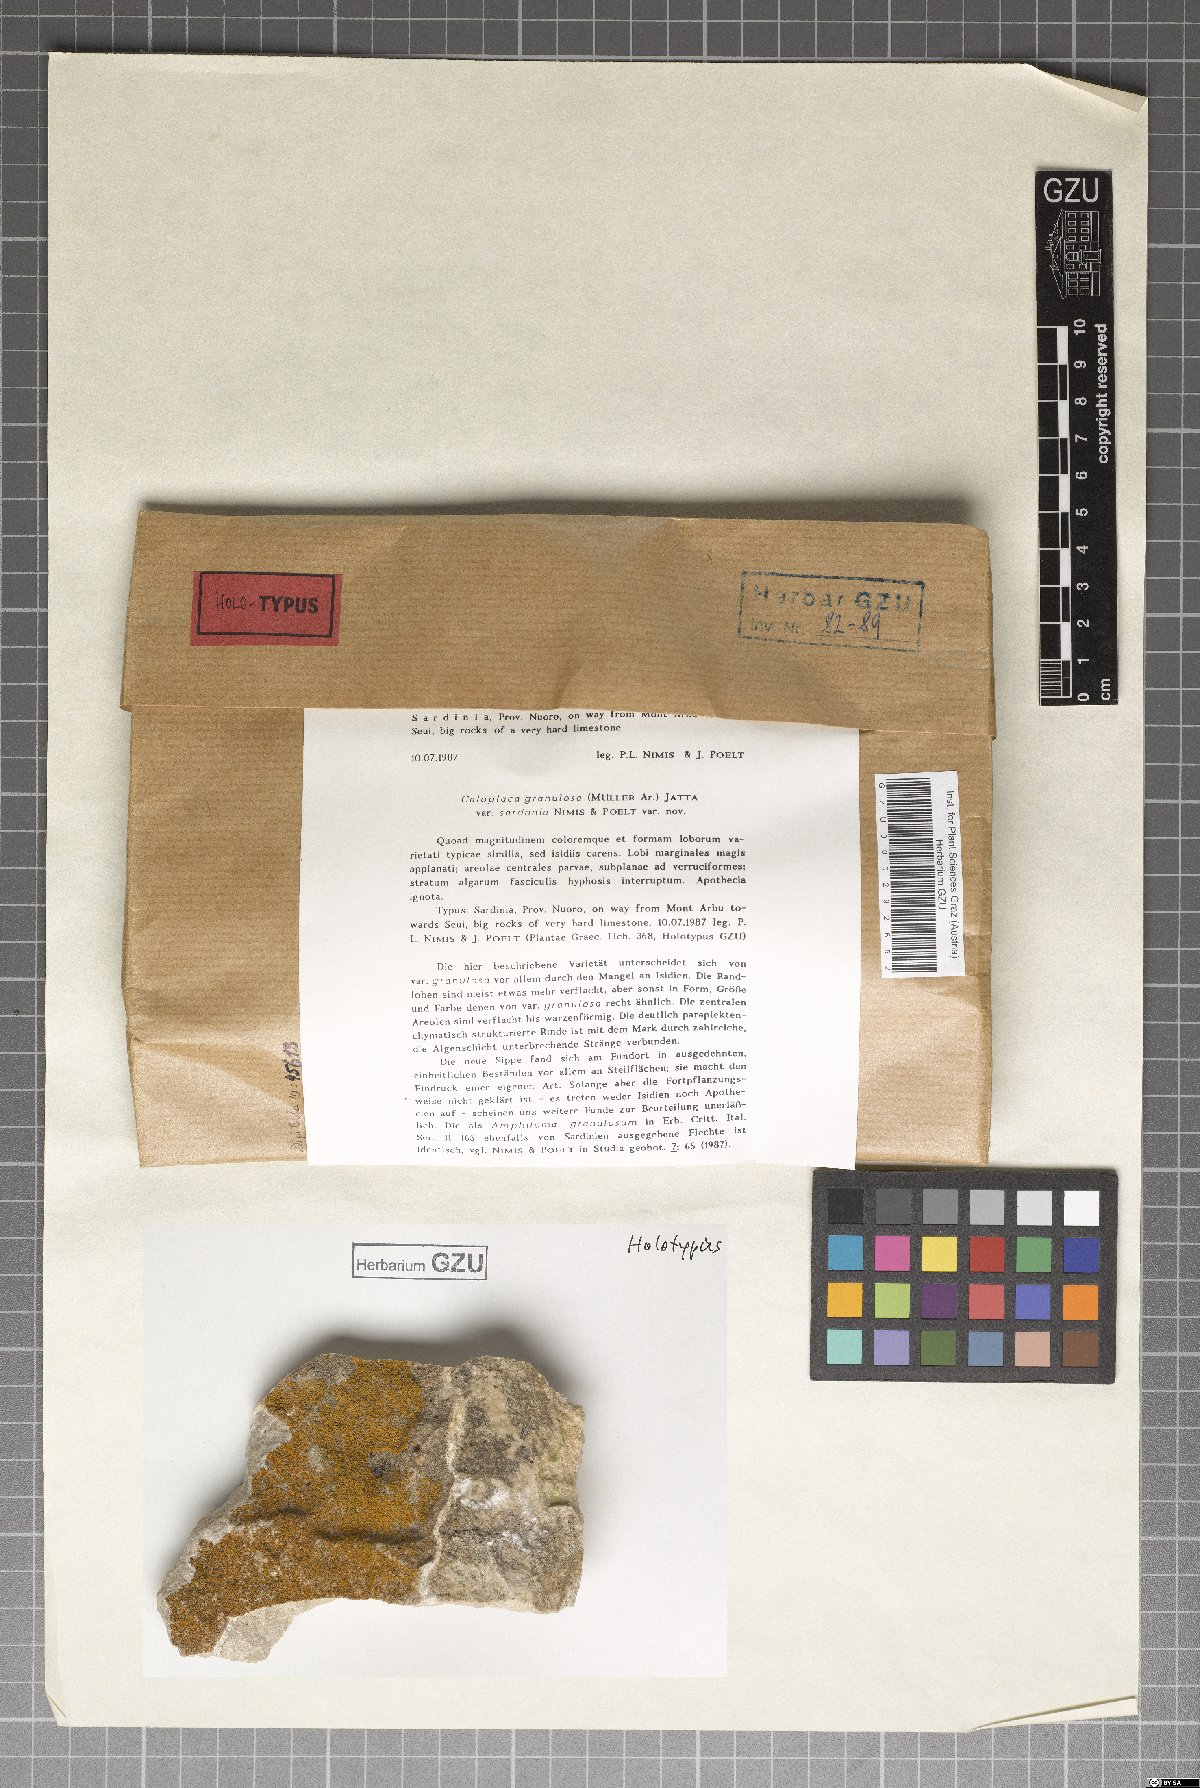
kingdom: Fungi
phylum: Ascomycota
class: Lecanoromycetes
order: Teloschistales
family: Teloschistaceae
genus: Flavoplaca
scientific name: Flavoplaca granulosa
